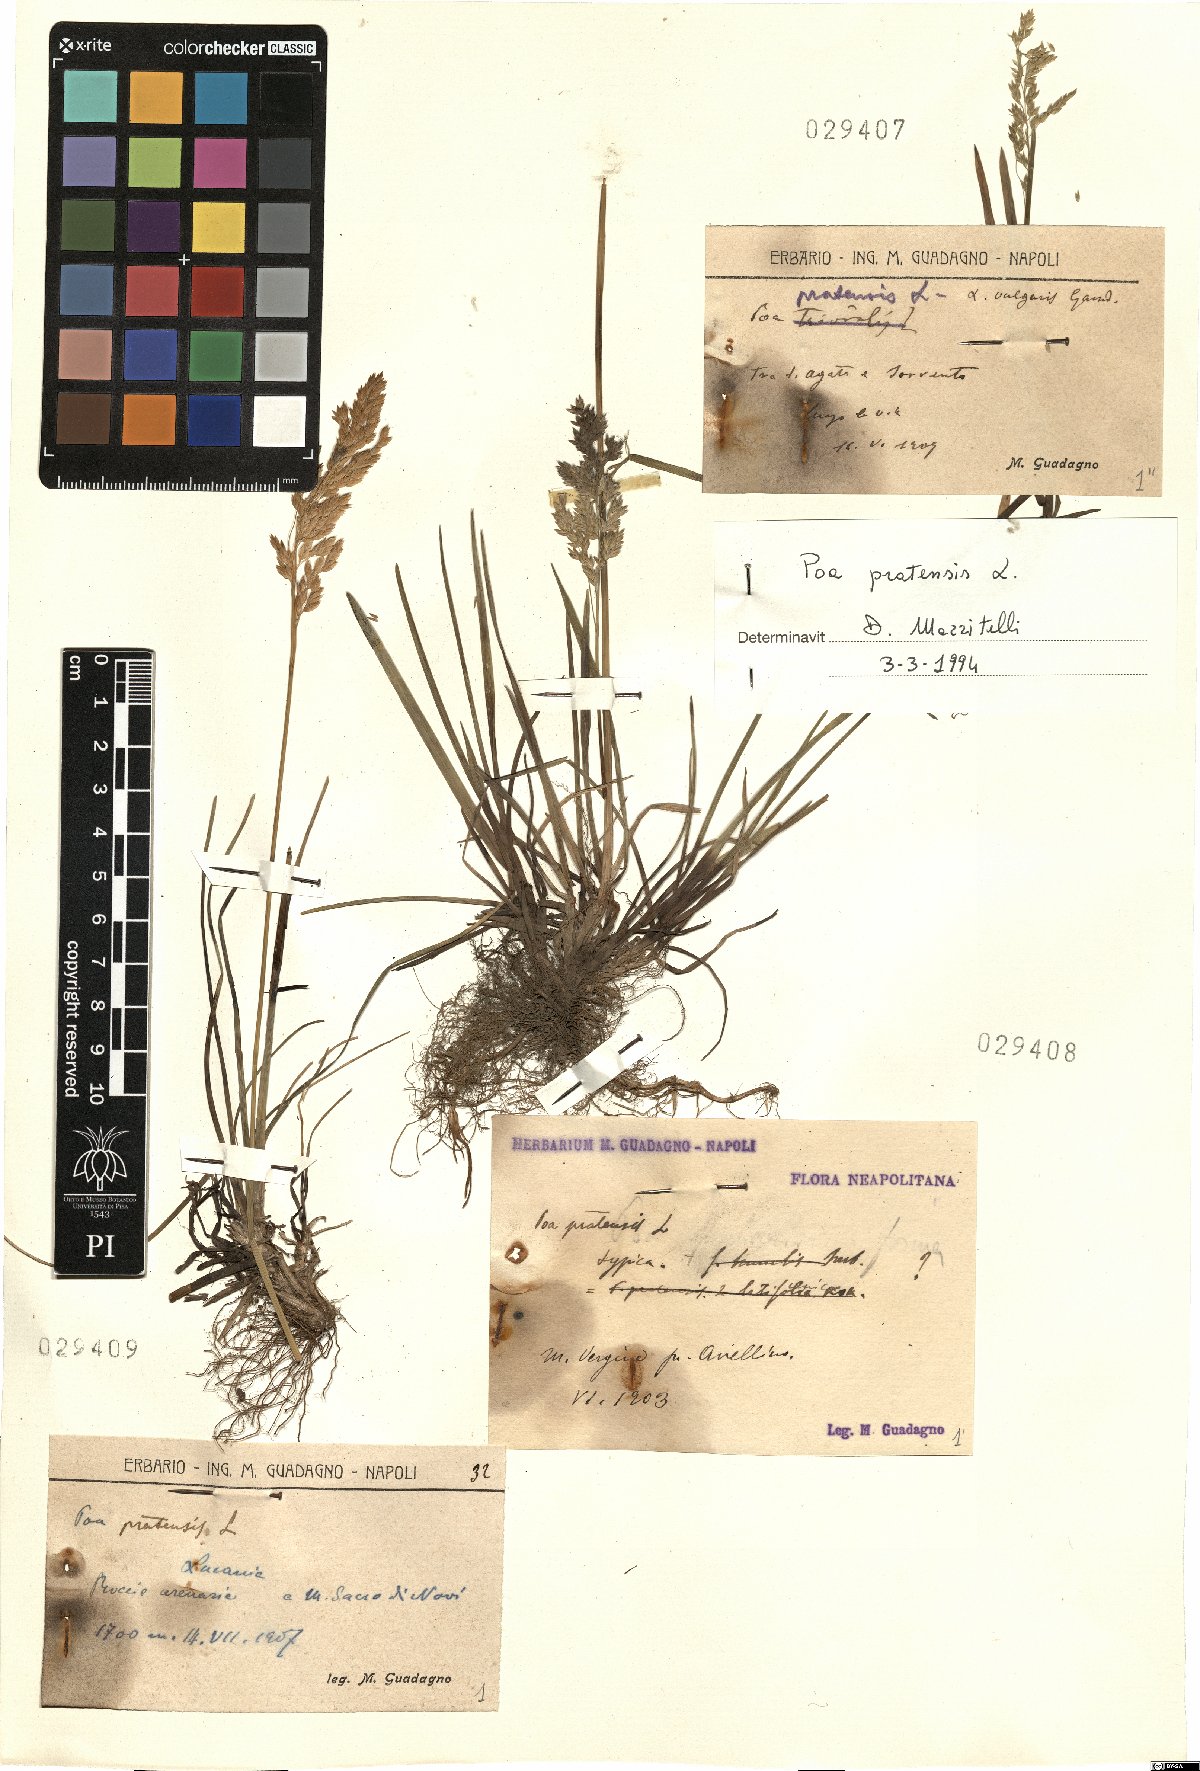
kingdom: Plantae
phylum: Tracheophyta
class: Liliopsida
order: Poales
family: Poaceae
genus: Poa
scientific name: Poa pratensis
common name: Kentucky bluegrass
